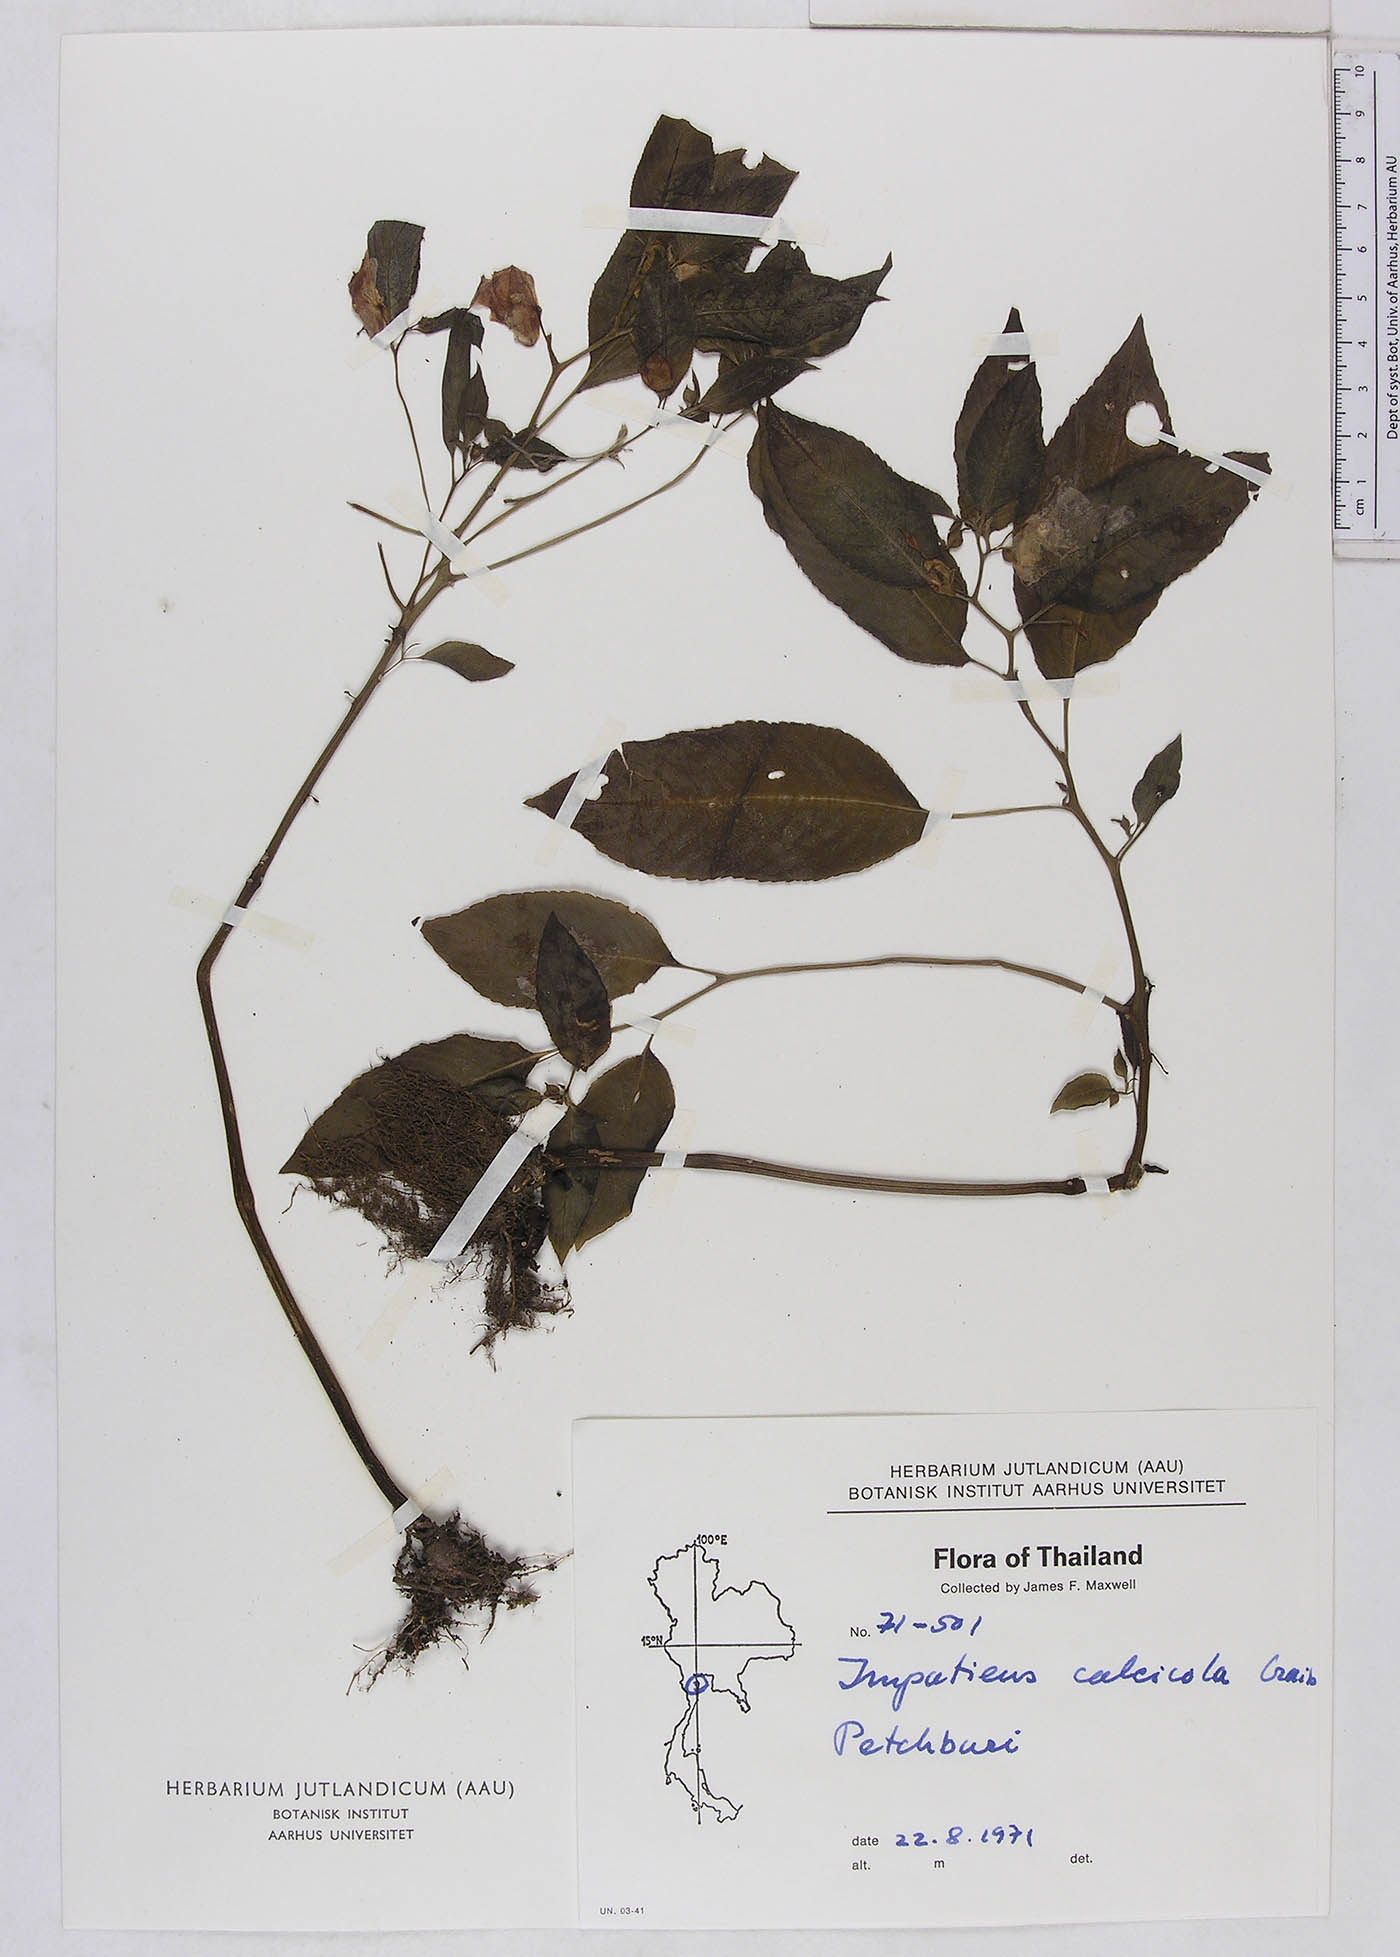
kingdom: Plantae
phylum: Tracheophyta
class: Magnoliopsida
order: Ericales
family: Balsaminaceae
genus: Impatiens
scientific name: Impatiens vaughanii
